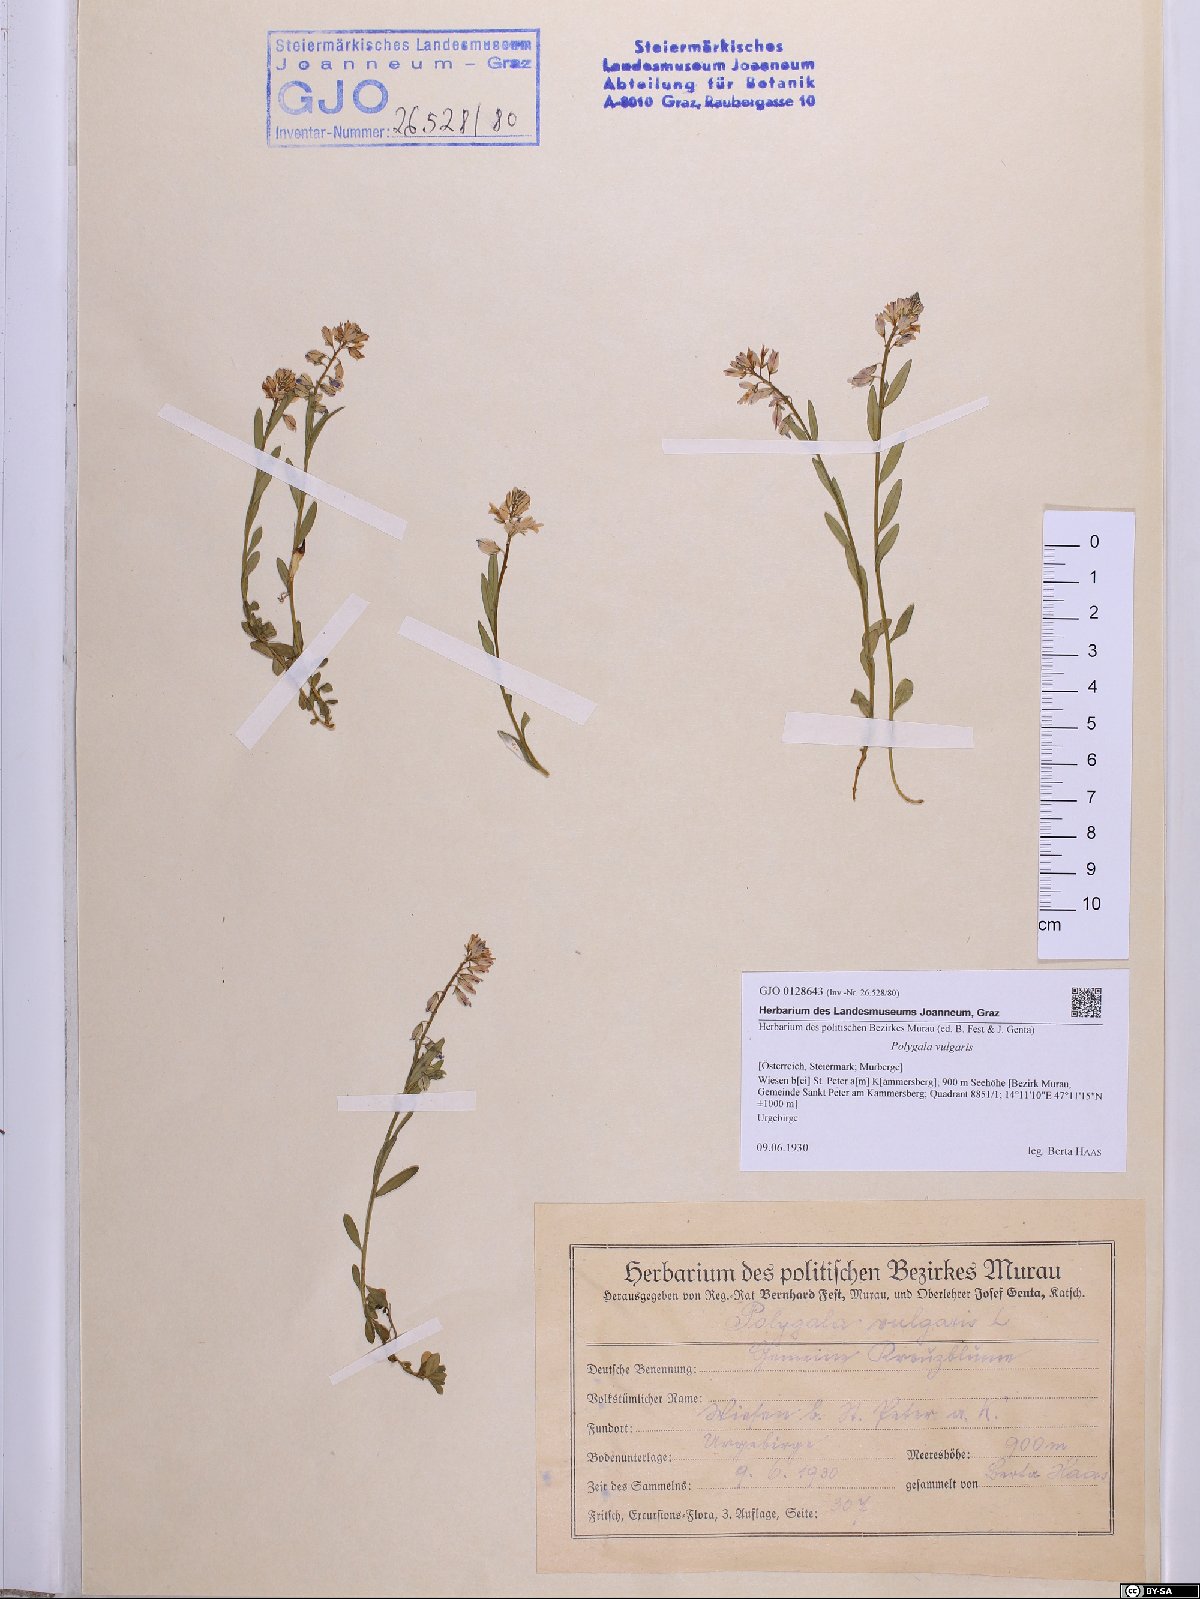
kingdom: Plantae
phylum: Tracheophyta
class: Magnoliopsida
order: Fabales
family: Polygalaceae
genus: Polygala
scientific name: Polygala vulgaris
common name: Common milkwort
